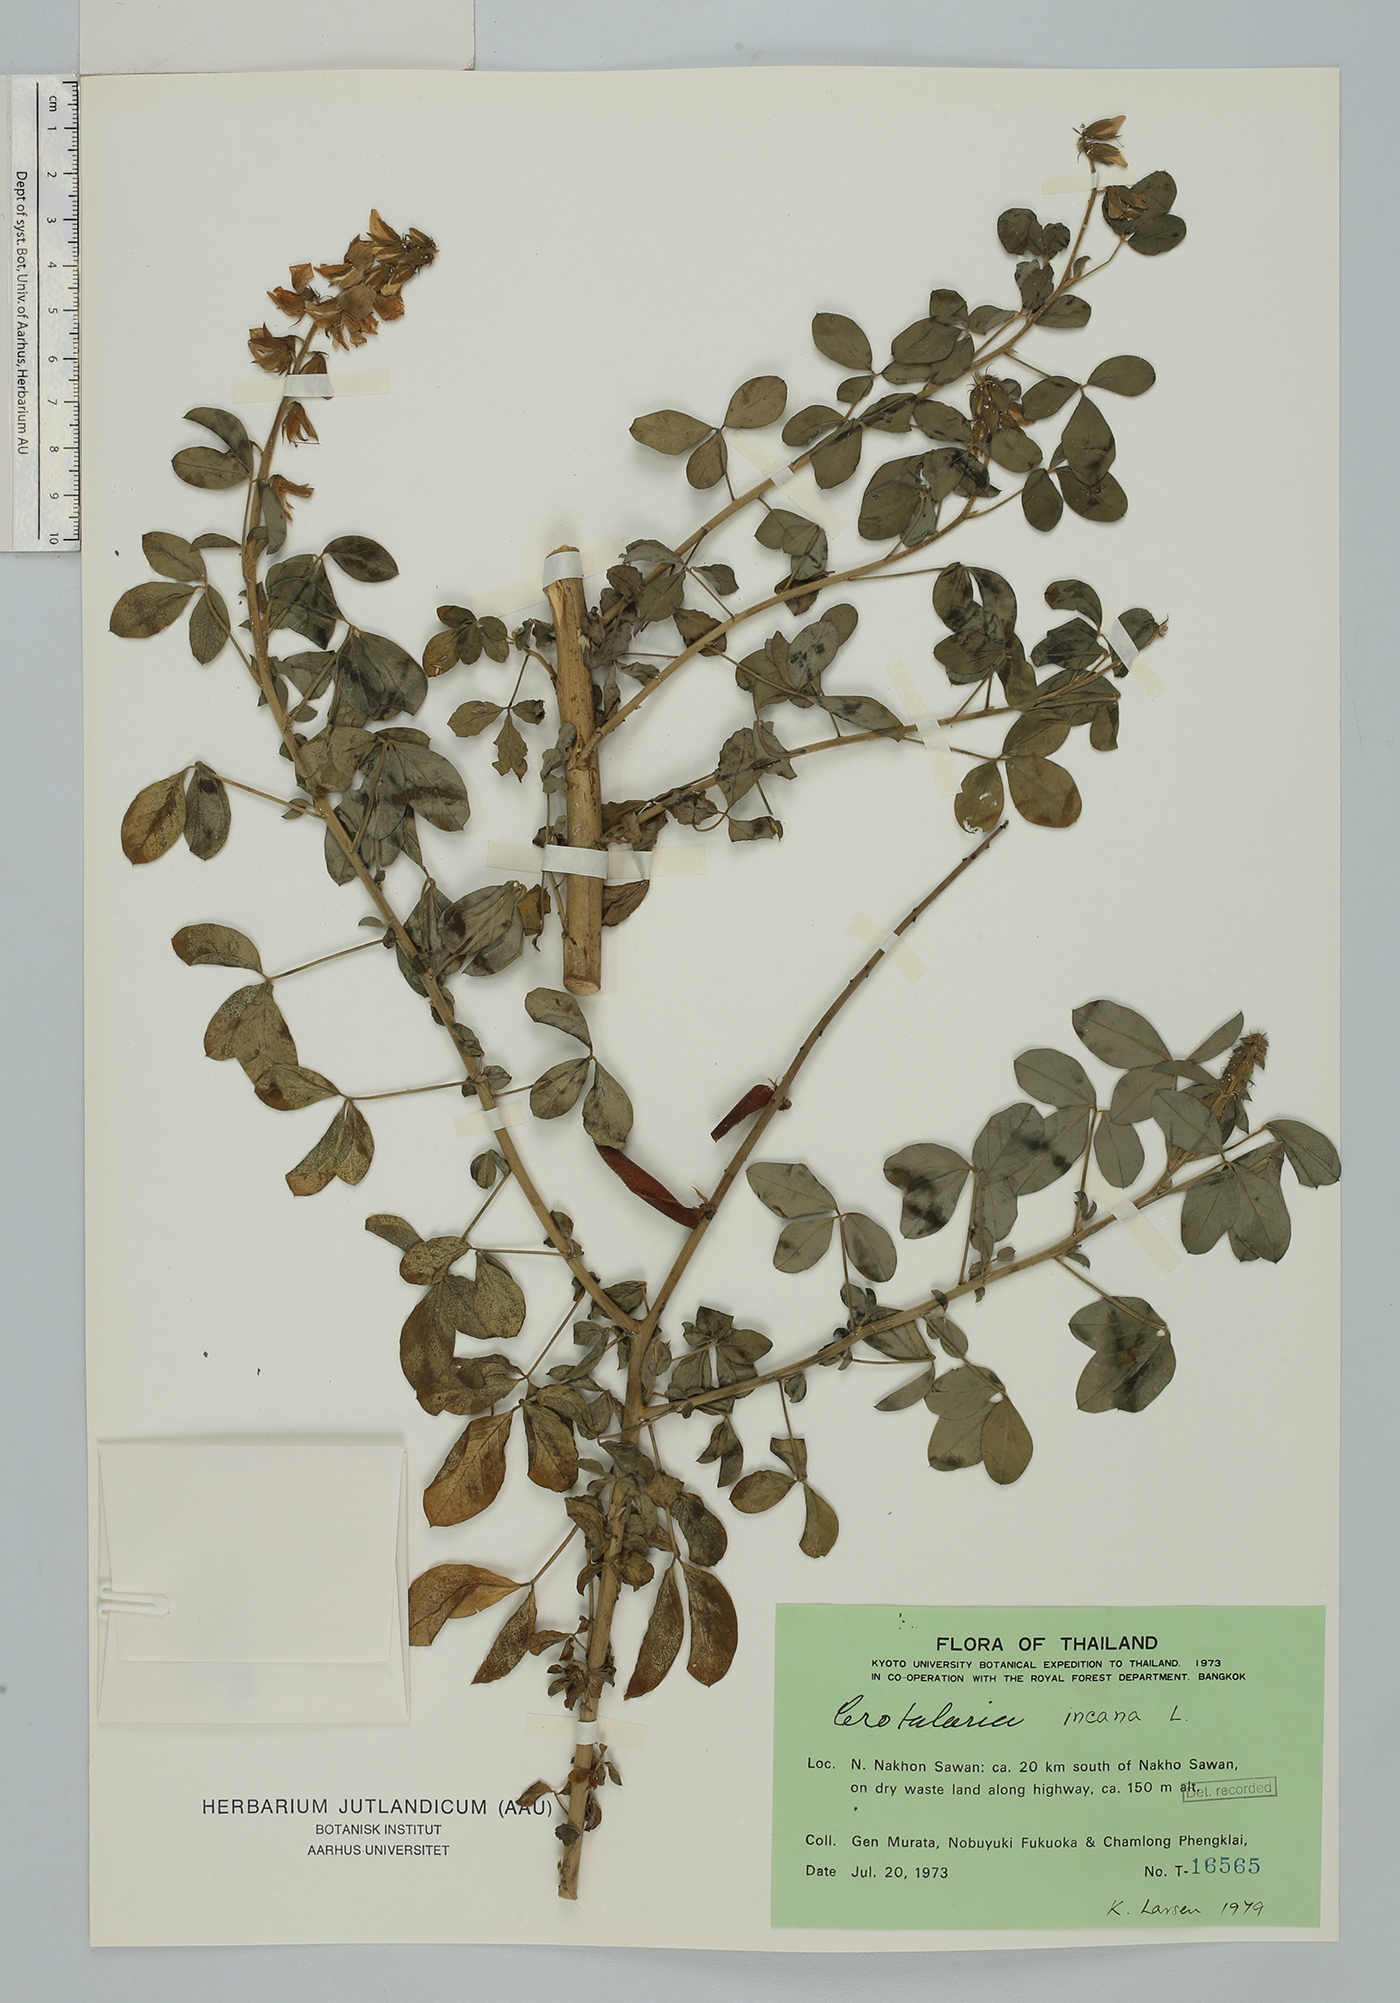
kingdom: Plantae
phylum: Tracheophyta
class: Magnoliopsida
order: Fabales
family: Fabaceae
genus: Crotalaria
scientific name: Crotalaria incana
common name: Shakeshake
